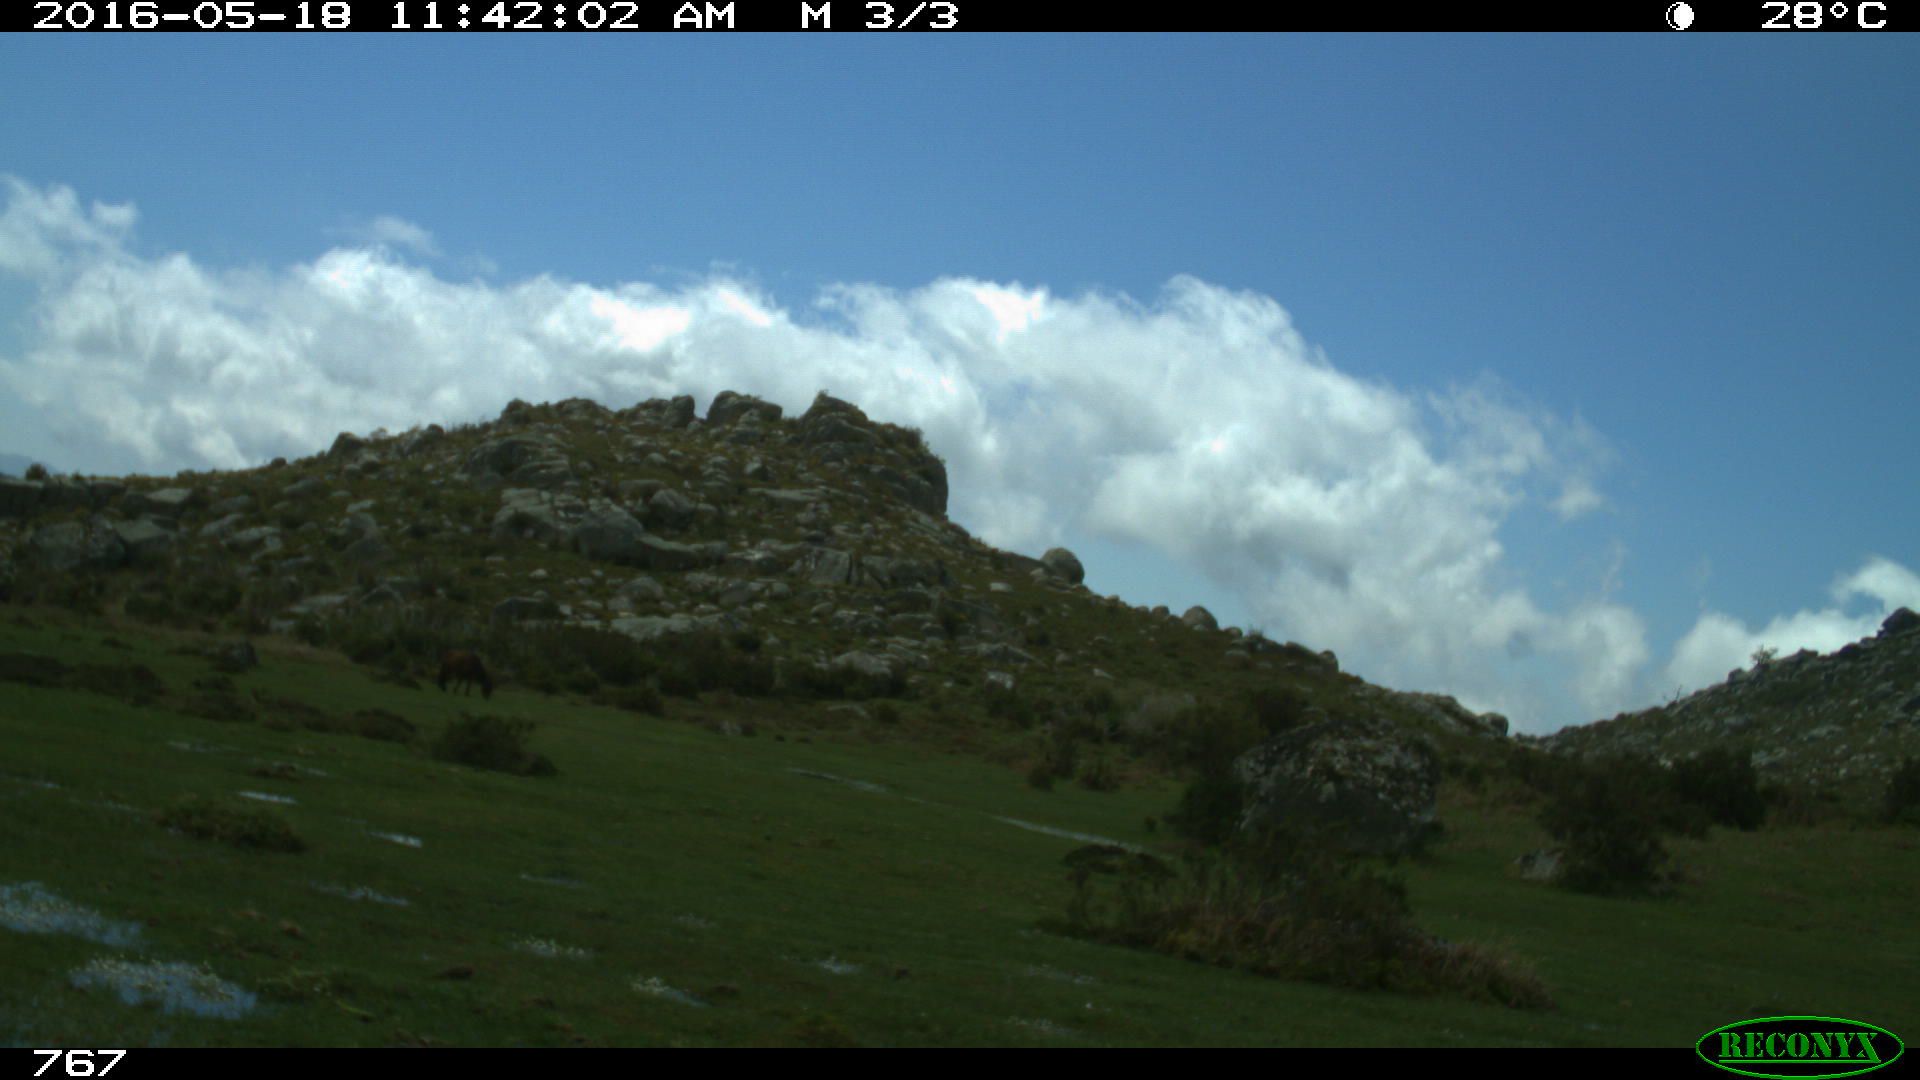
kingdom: Animalia
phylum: Chordata
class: Mammalia
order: Artiodactyla
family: Bovidae
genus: Bos
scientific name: Bos taurus
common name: Domesticated cattle
